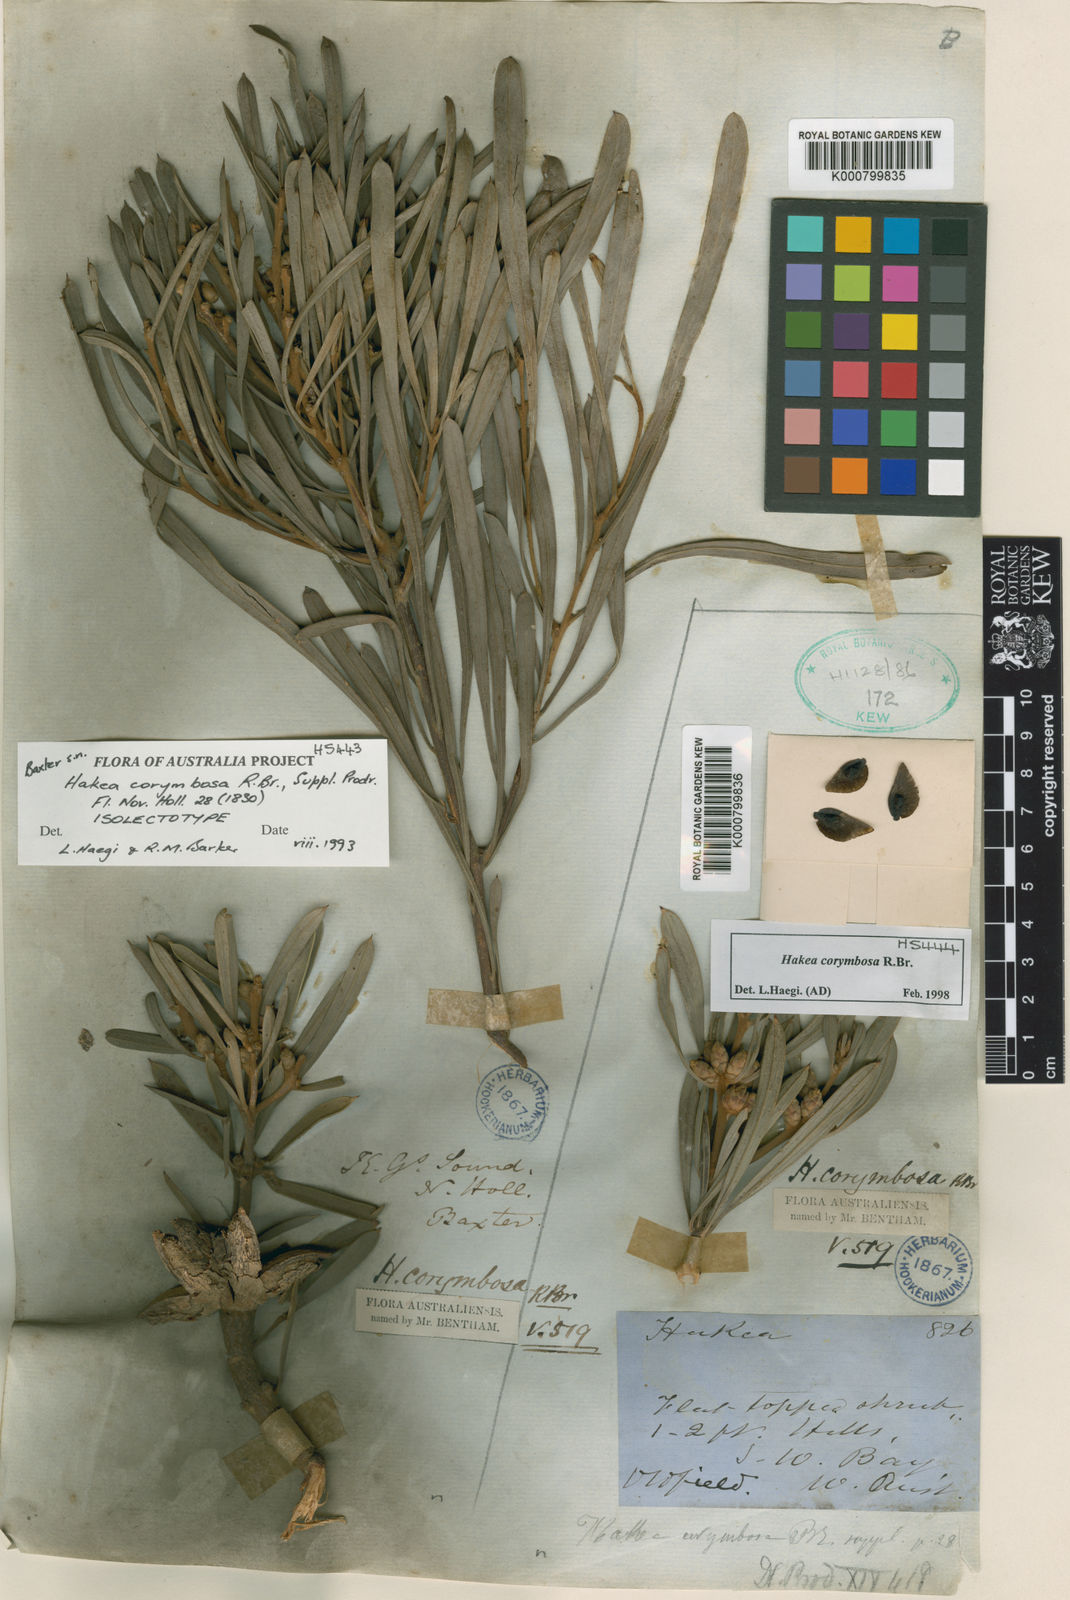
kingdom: Plantae
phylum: Tracheophyta
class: Magnoliopsida
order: Proteales
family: Proteaceae
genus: Hakea
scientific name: Hakea corymbosa
